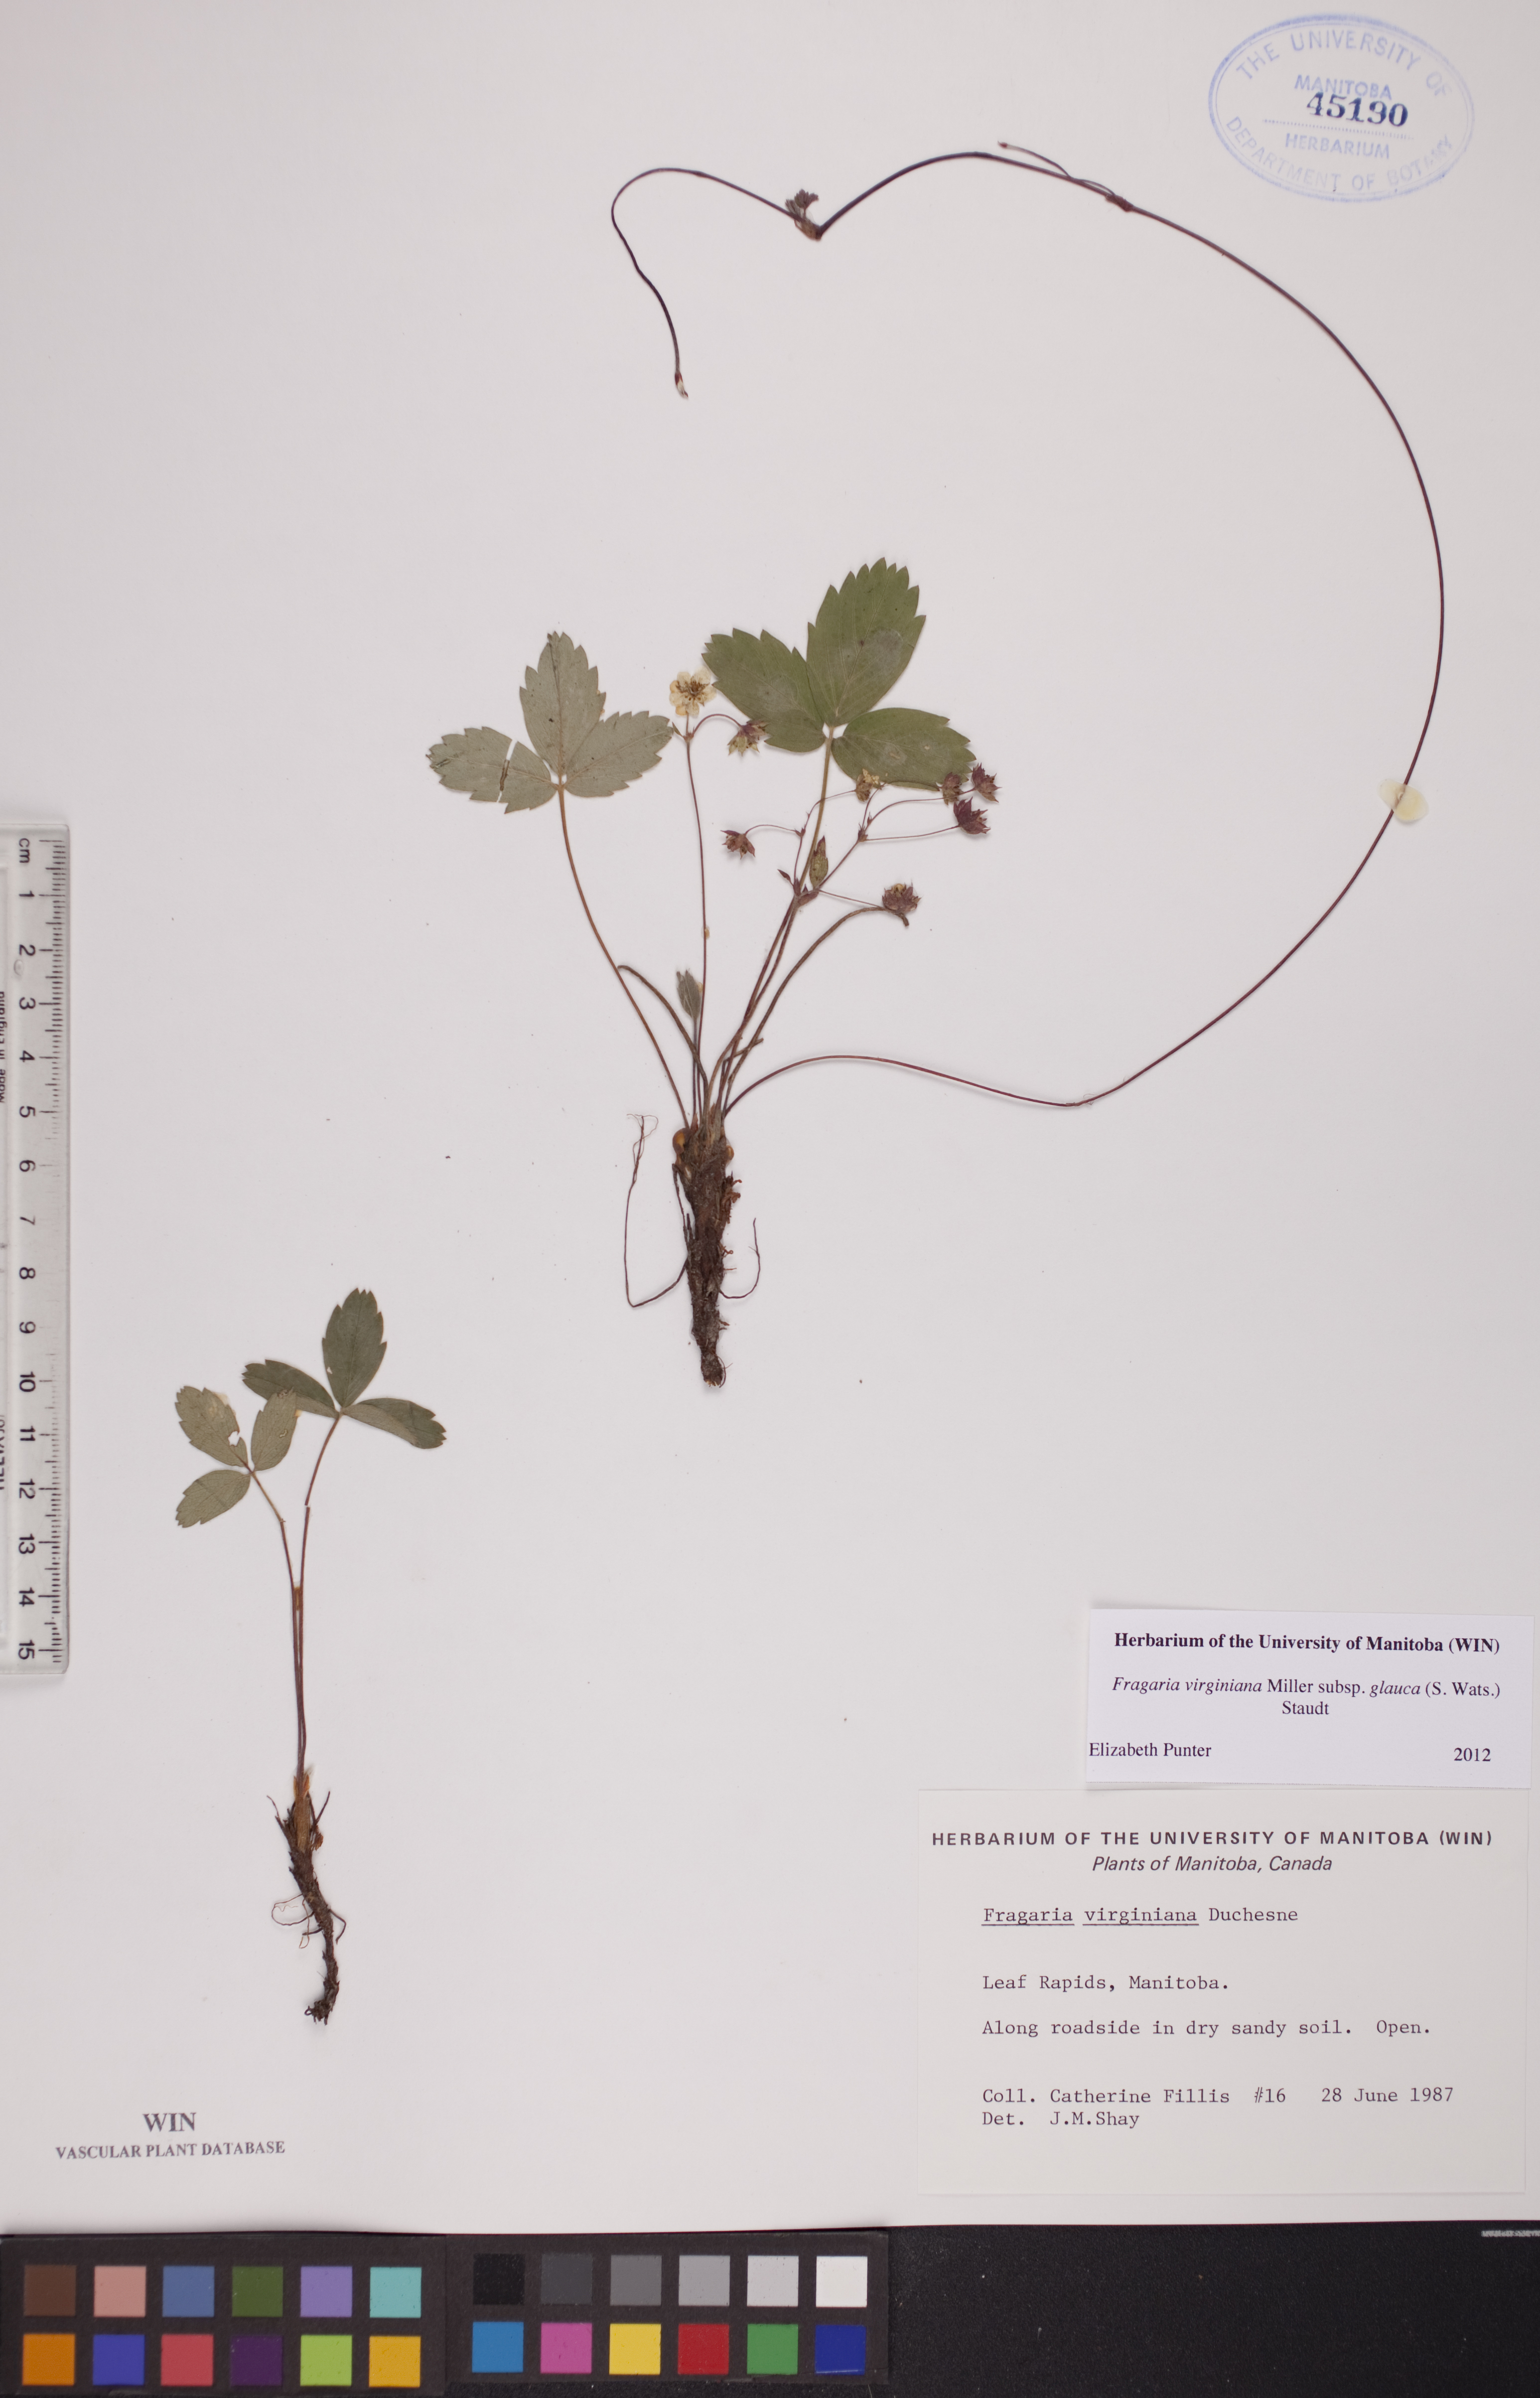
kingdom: Plantae
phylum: Tracheophyta
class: Magnoliopsida
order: Rosales
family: Rosaceae
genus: Fragaria
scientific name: Fragaria virginiana
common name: Thickleaved wild strawberry
